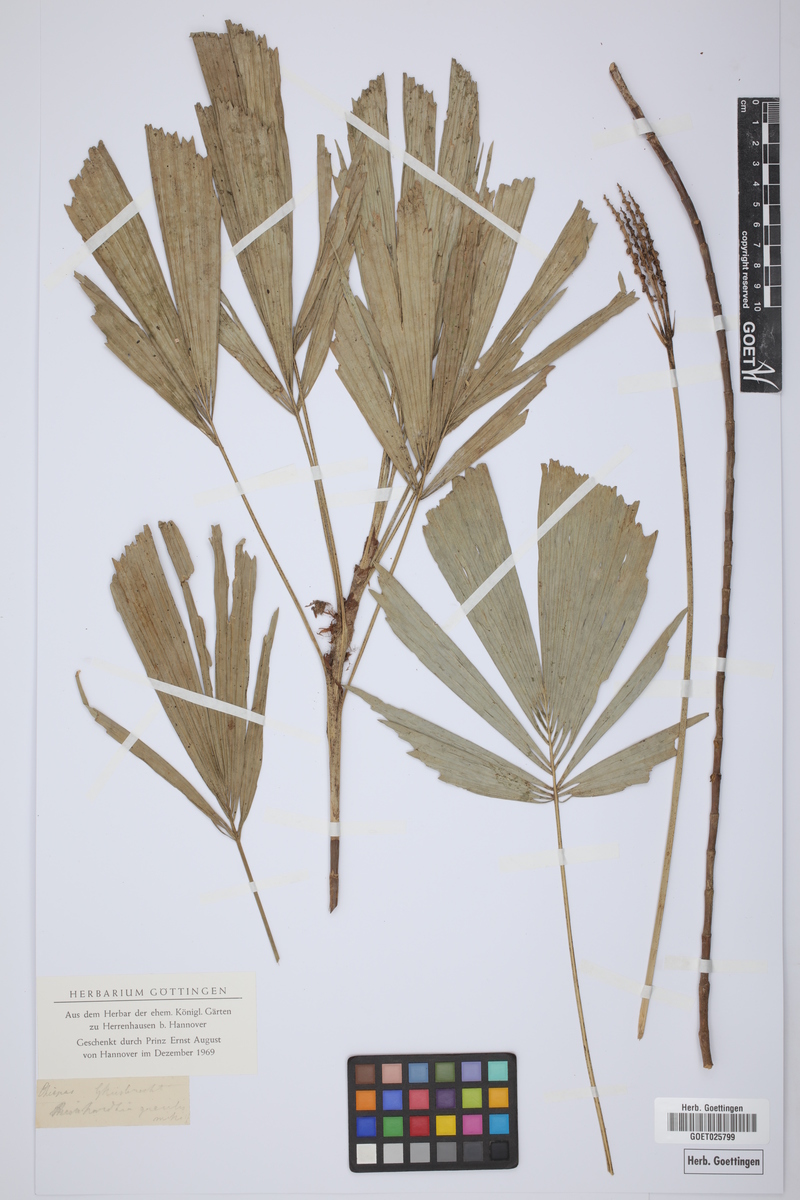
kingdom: Plantae
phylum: Tracheophyta
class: Liliopsida
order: Arecales
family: Arecaceae
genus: Reinhardtia
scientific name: Reinhardtia gracilis
